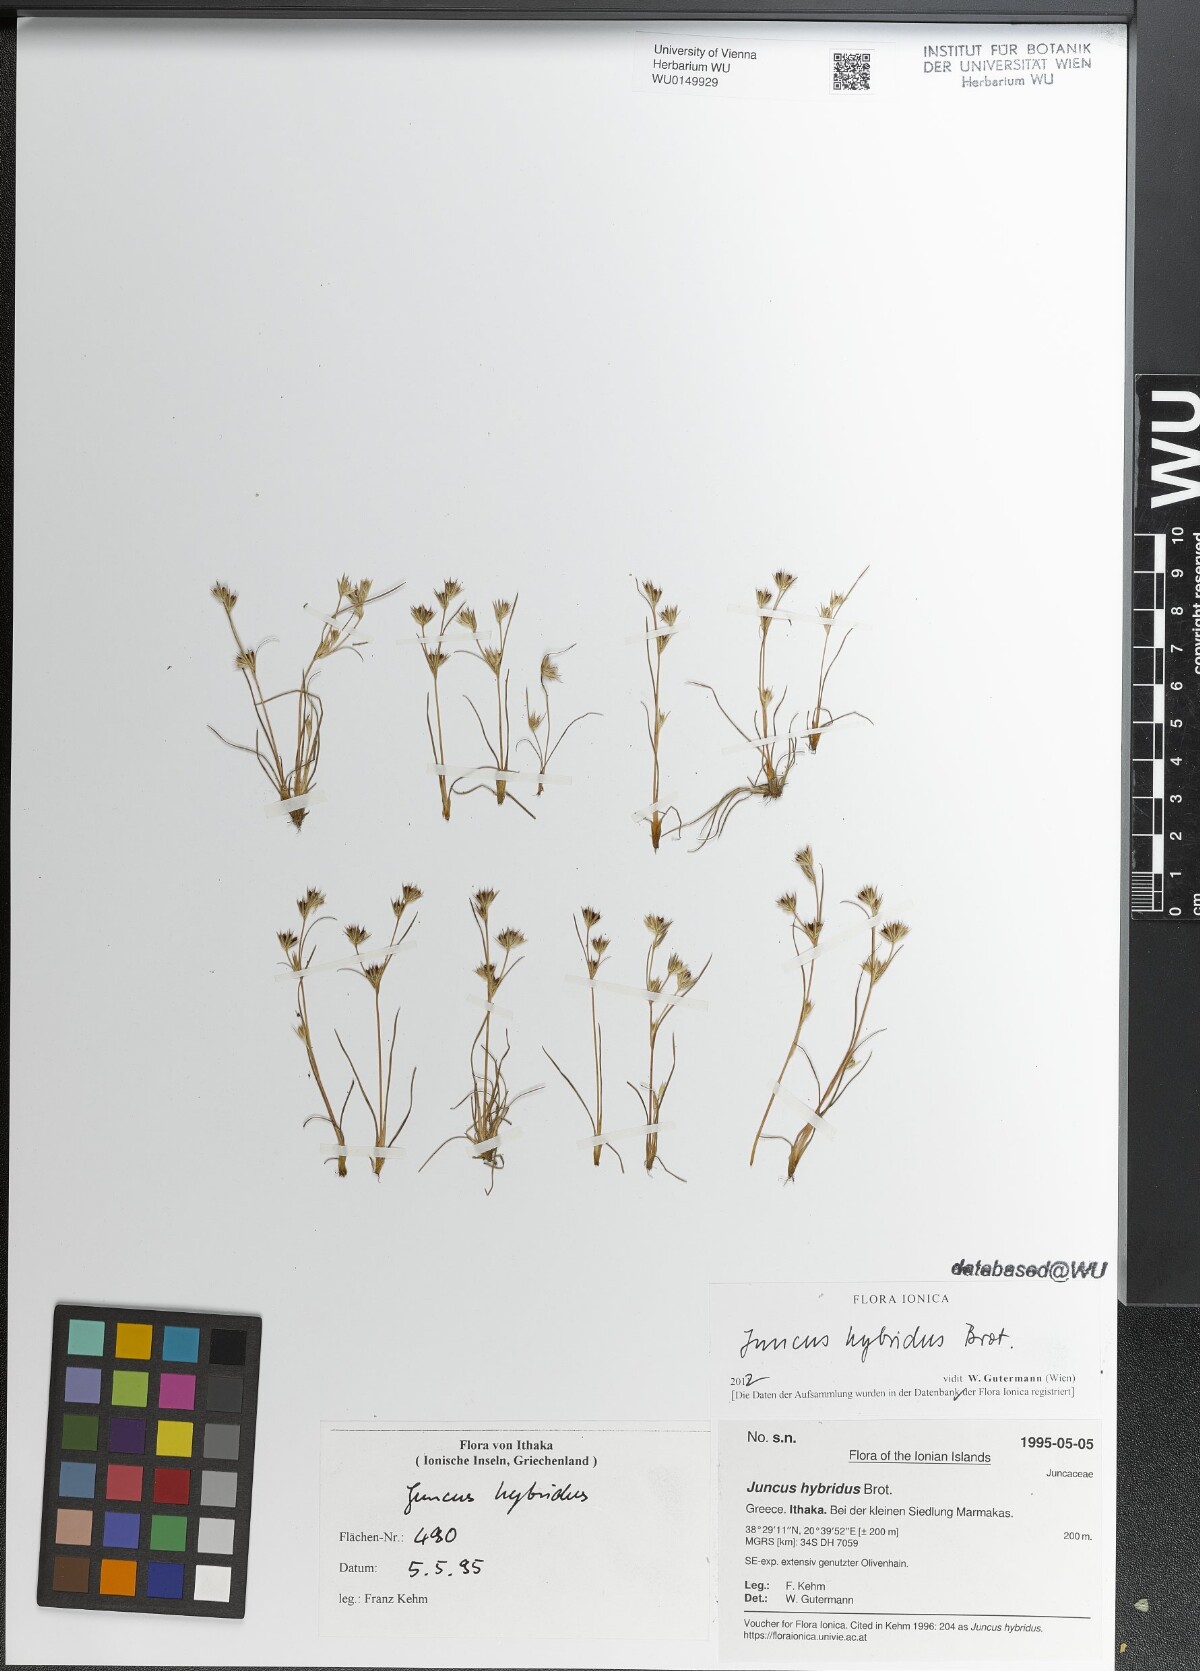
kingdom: Plantae
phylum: Tracheophyta
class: Liliopsida
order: Poales
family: Juncaceae
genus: Juncus
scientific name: Juncus hybridus
